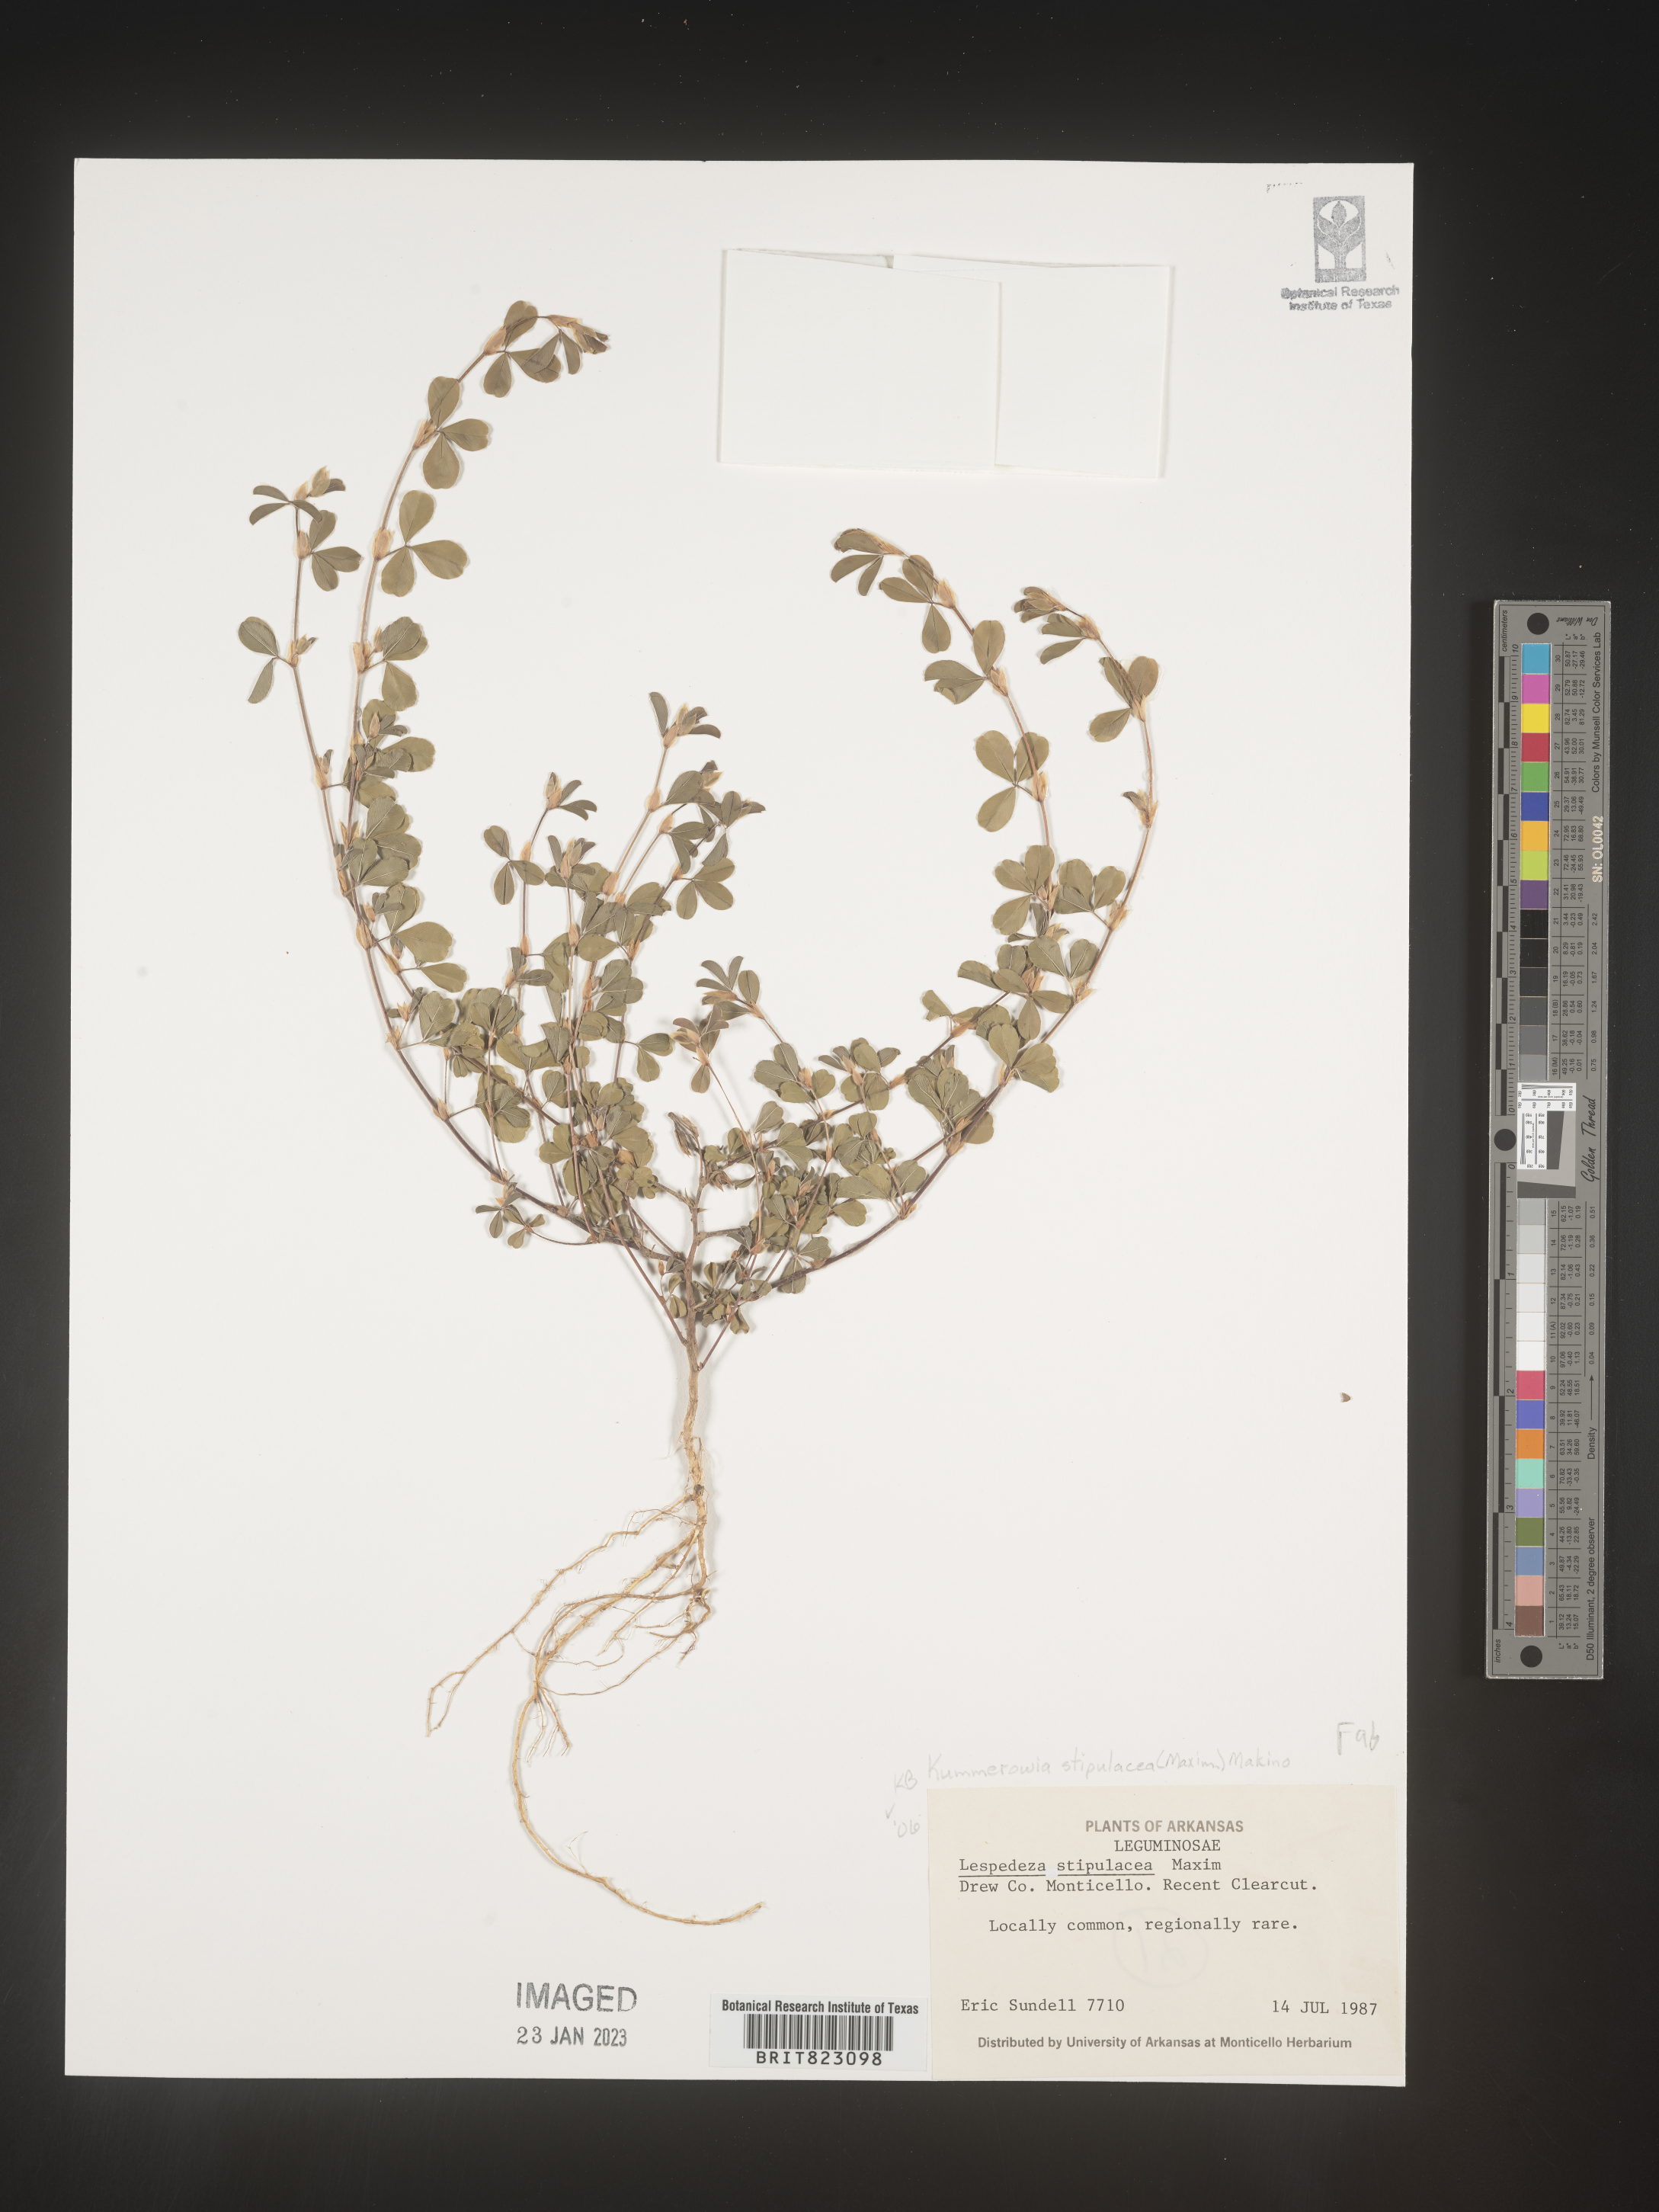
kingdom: Plantae
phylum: Tracheophyta
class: Magnoliopsida
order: Fabales
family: Fabaceae
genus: Lespedeza
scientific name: Lespedeza
